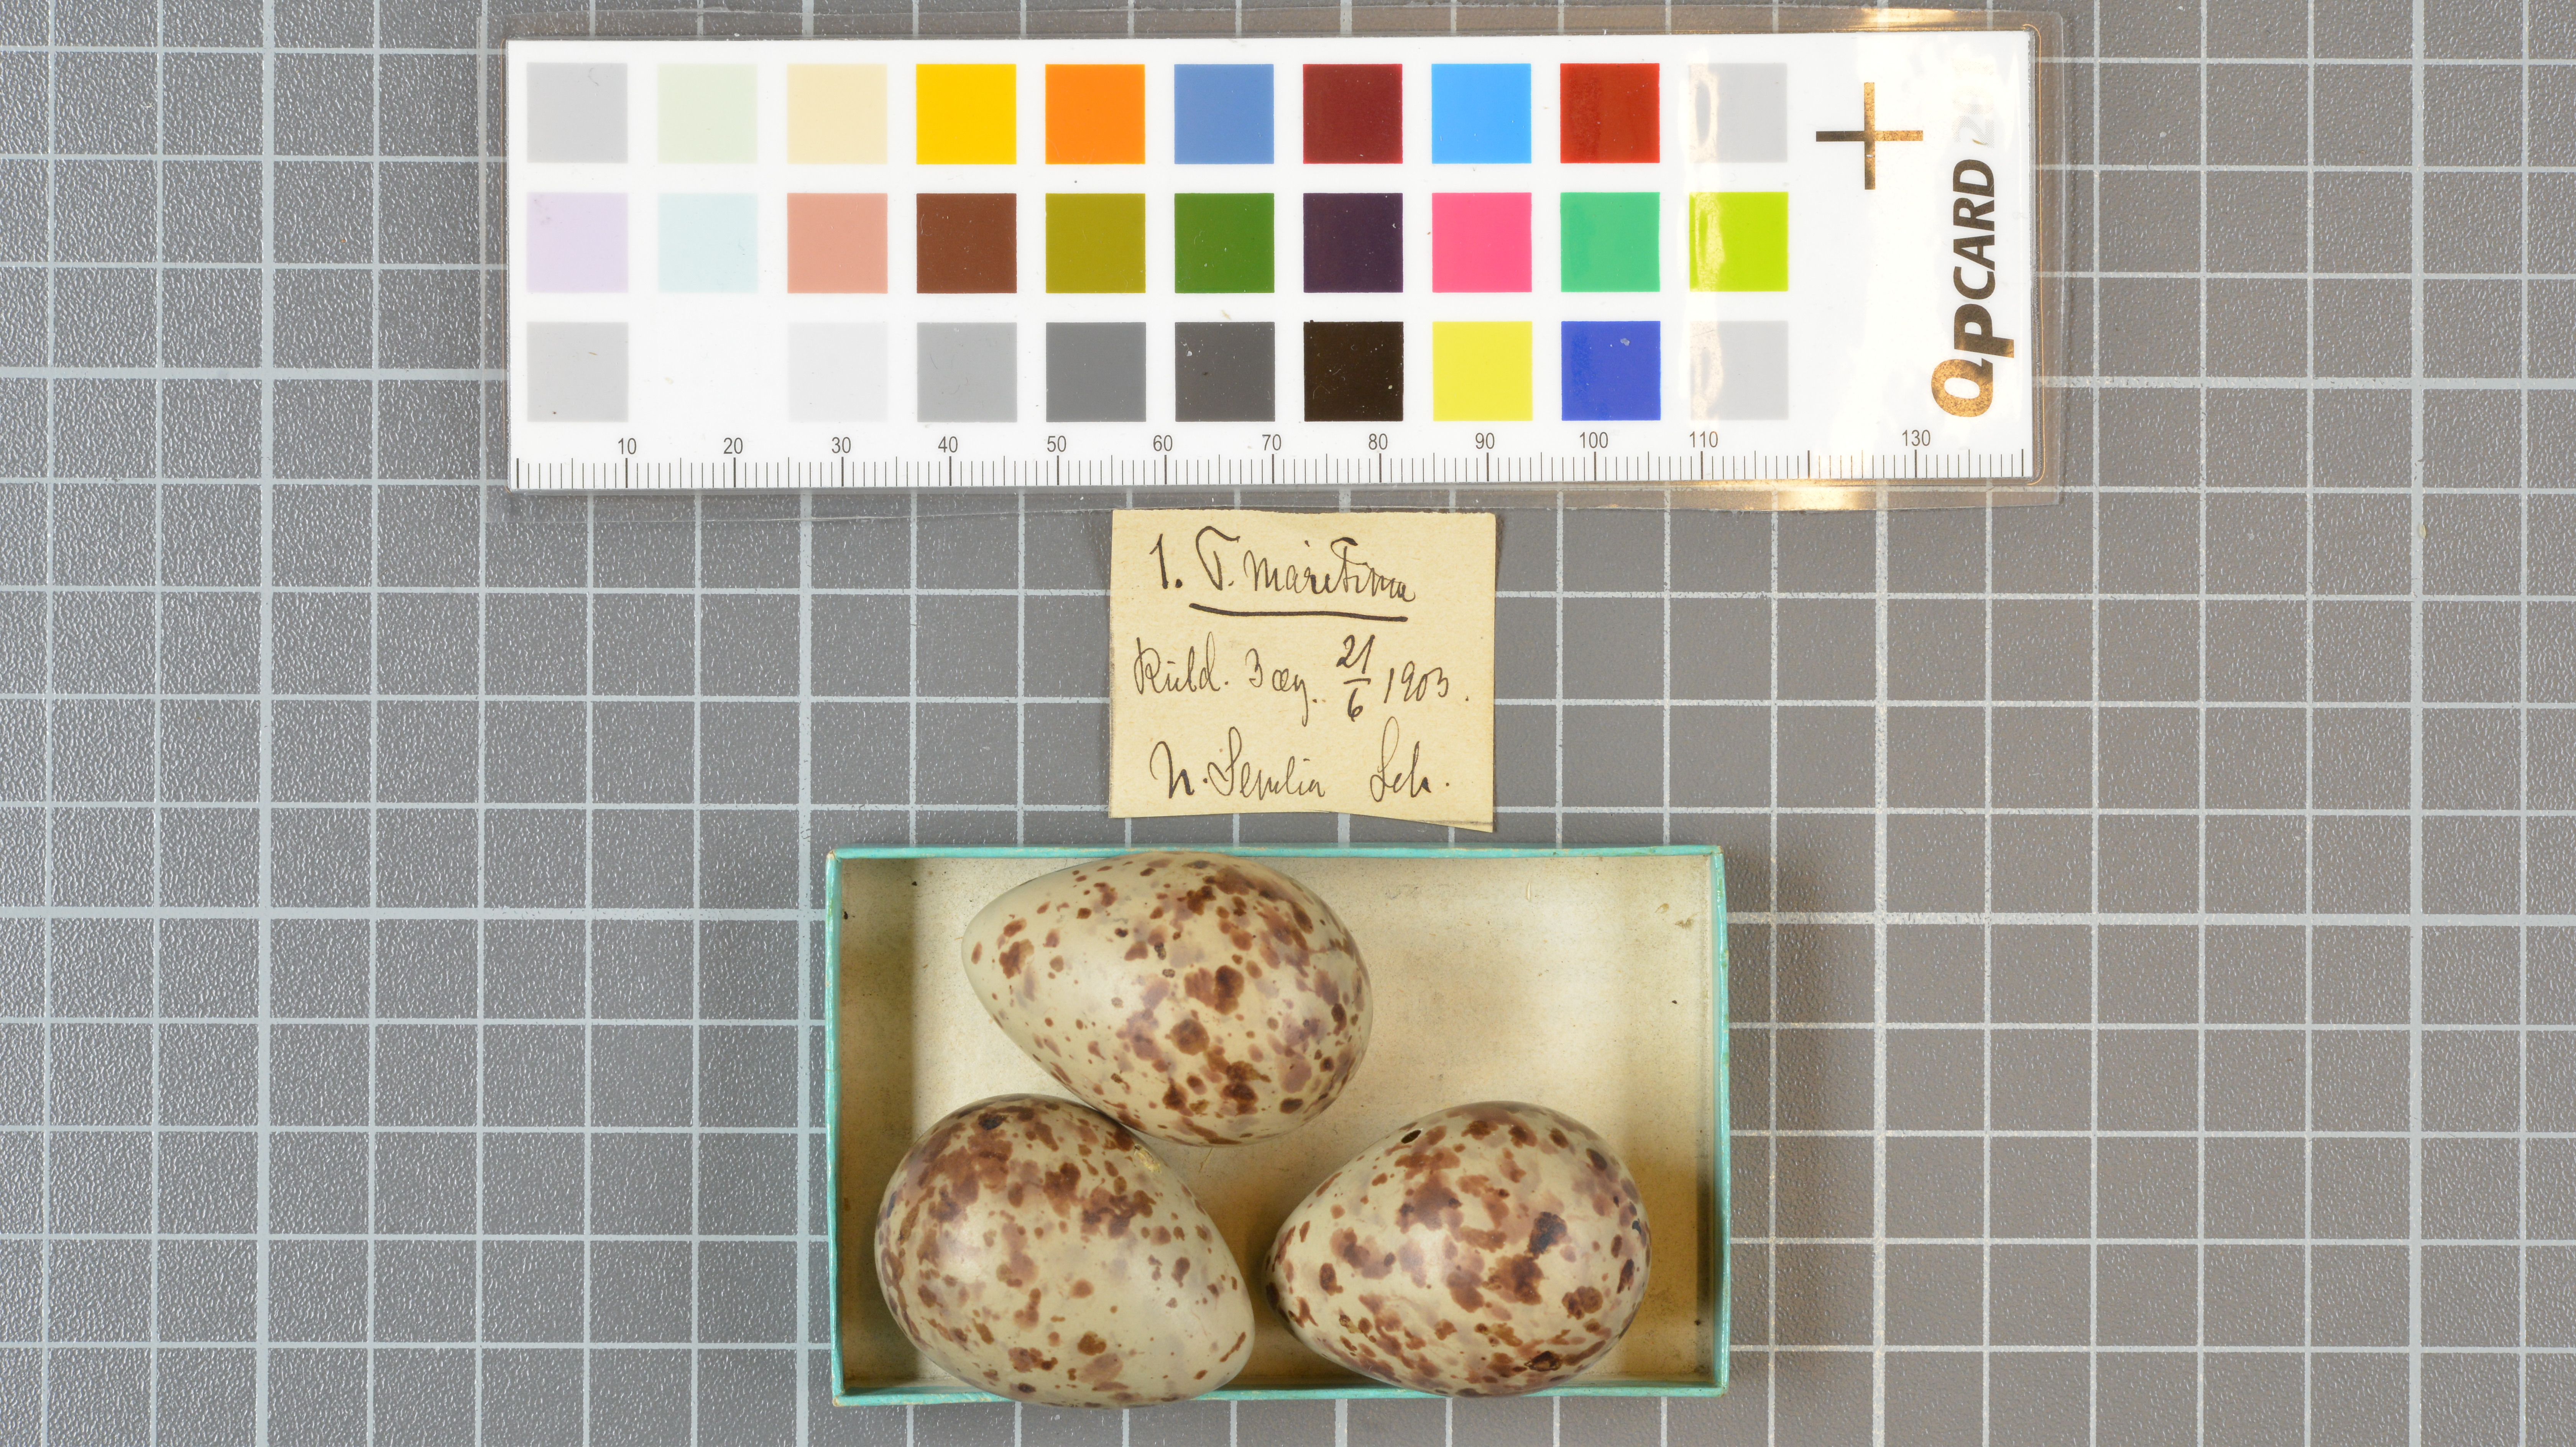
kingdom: Animalia
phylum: Chordata
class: Aves
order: Charadriiformes
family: Scolopacidae
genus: Calidris
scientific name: Calidris maritima
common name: Purple sandpiper
